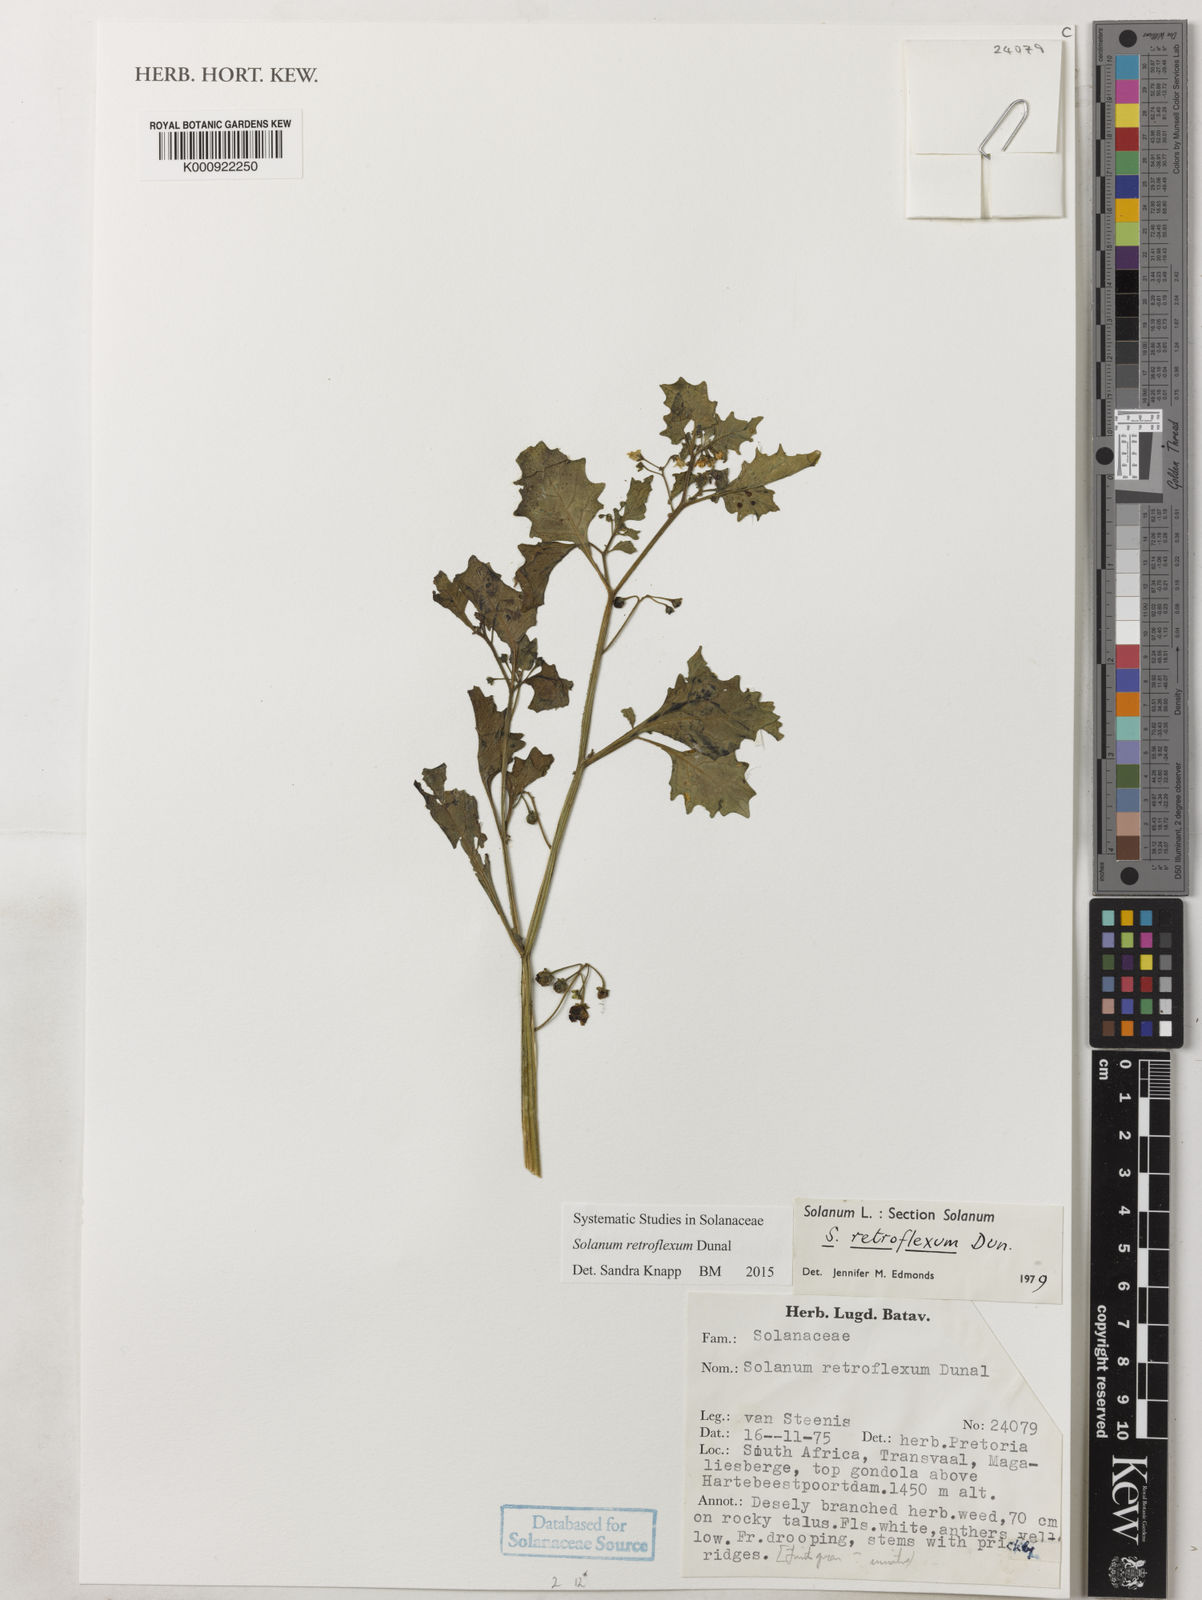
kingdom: Plantae
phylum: Tracheophyta
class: Magnoliopsida
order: Solanales
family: Solanaceae
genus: Solanum
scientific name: Solanum retroflexum
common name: Wonderberry
